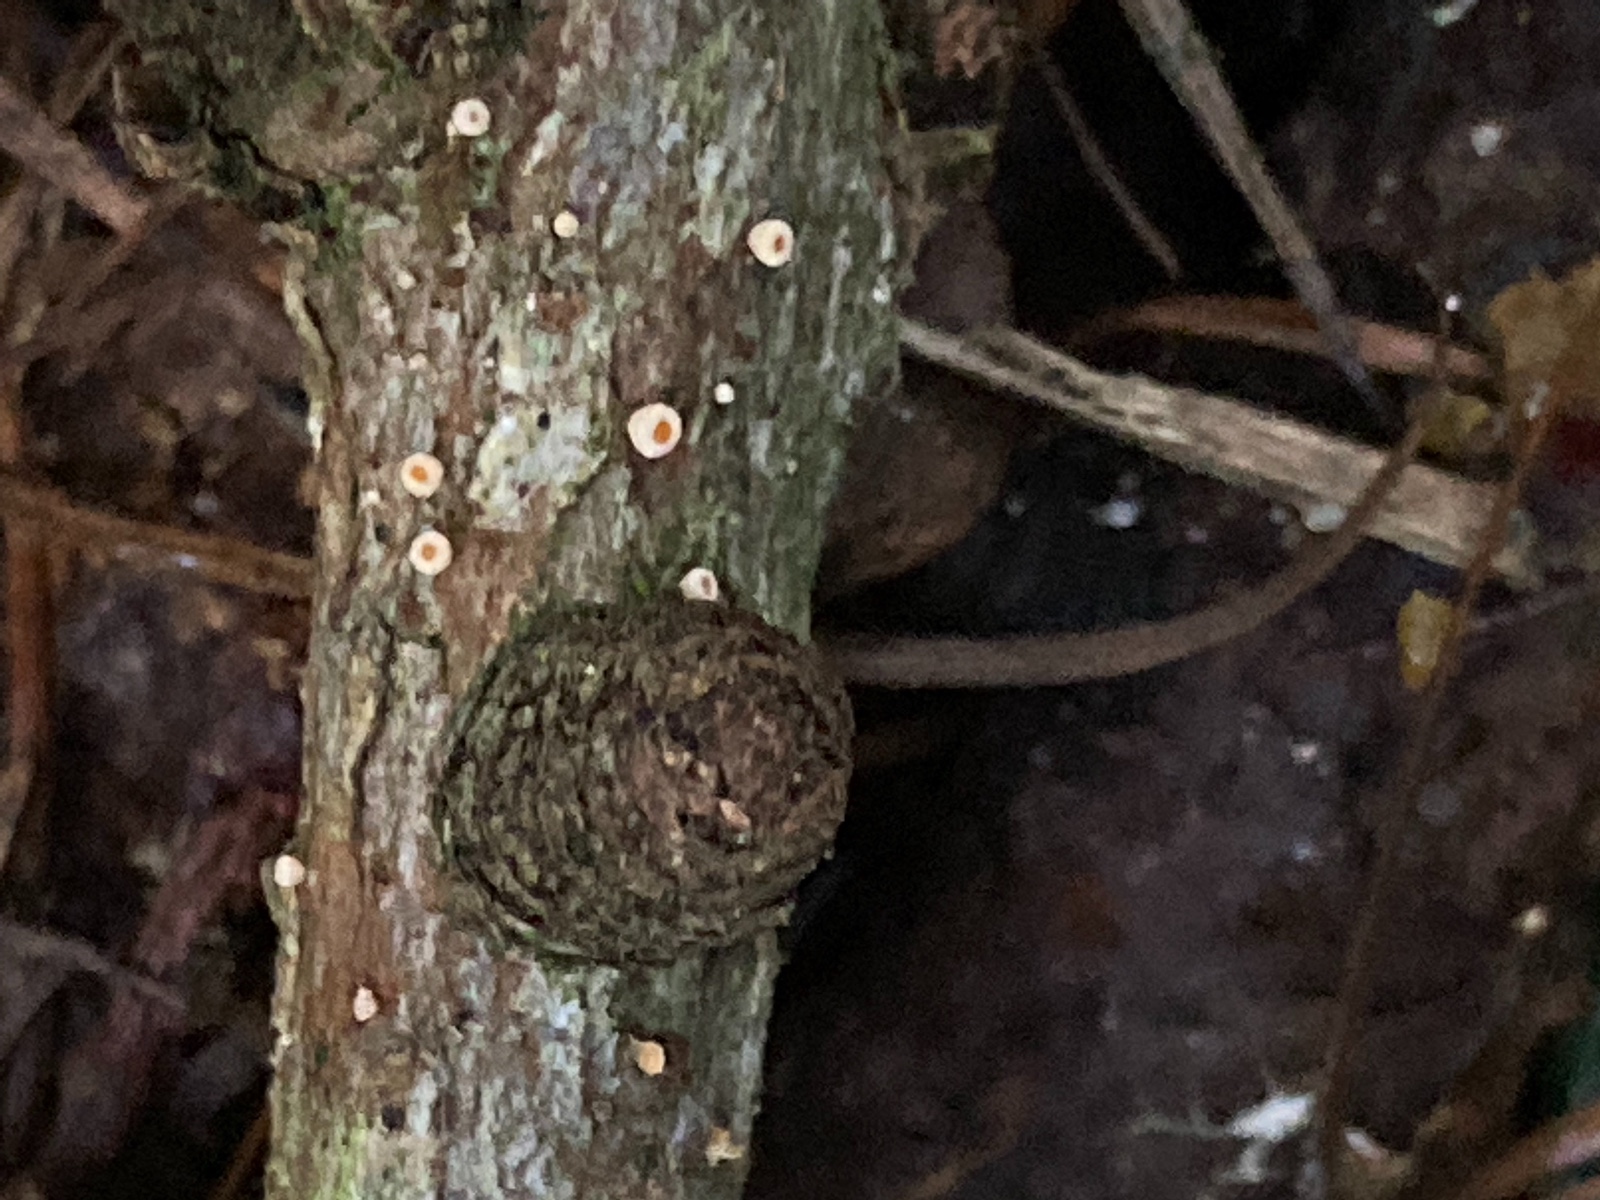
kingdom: Fungi
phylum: Ascomycota
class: Leotiomycetes
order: Helotiales
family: Lachnaceae
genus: Lachnellula
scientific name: Lachnellula occidentalis
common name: Larch disco
